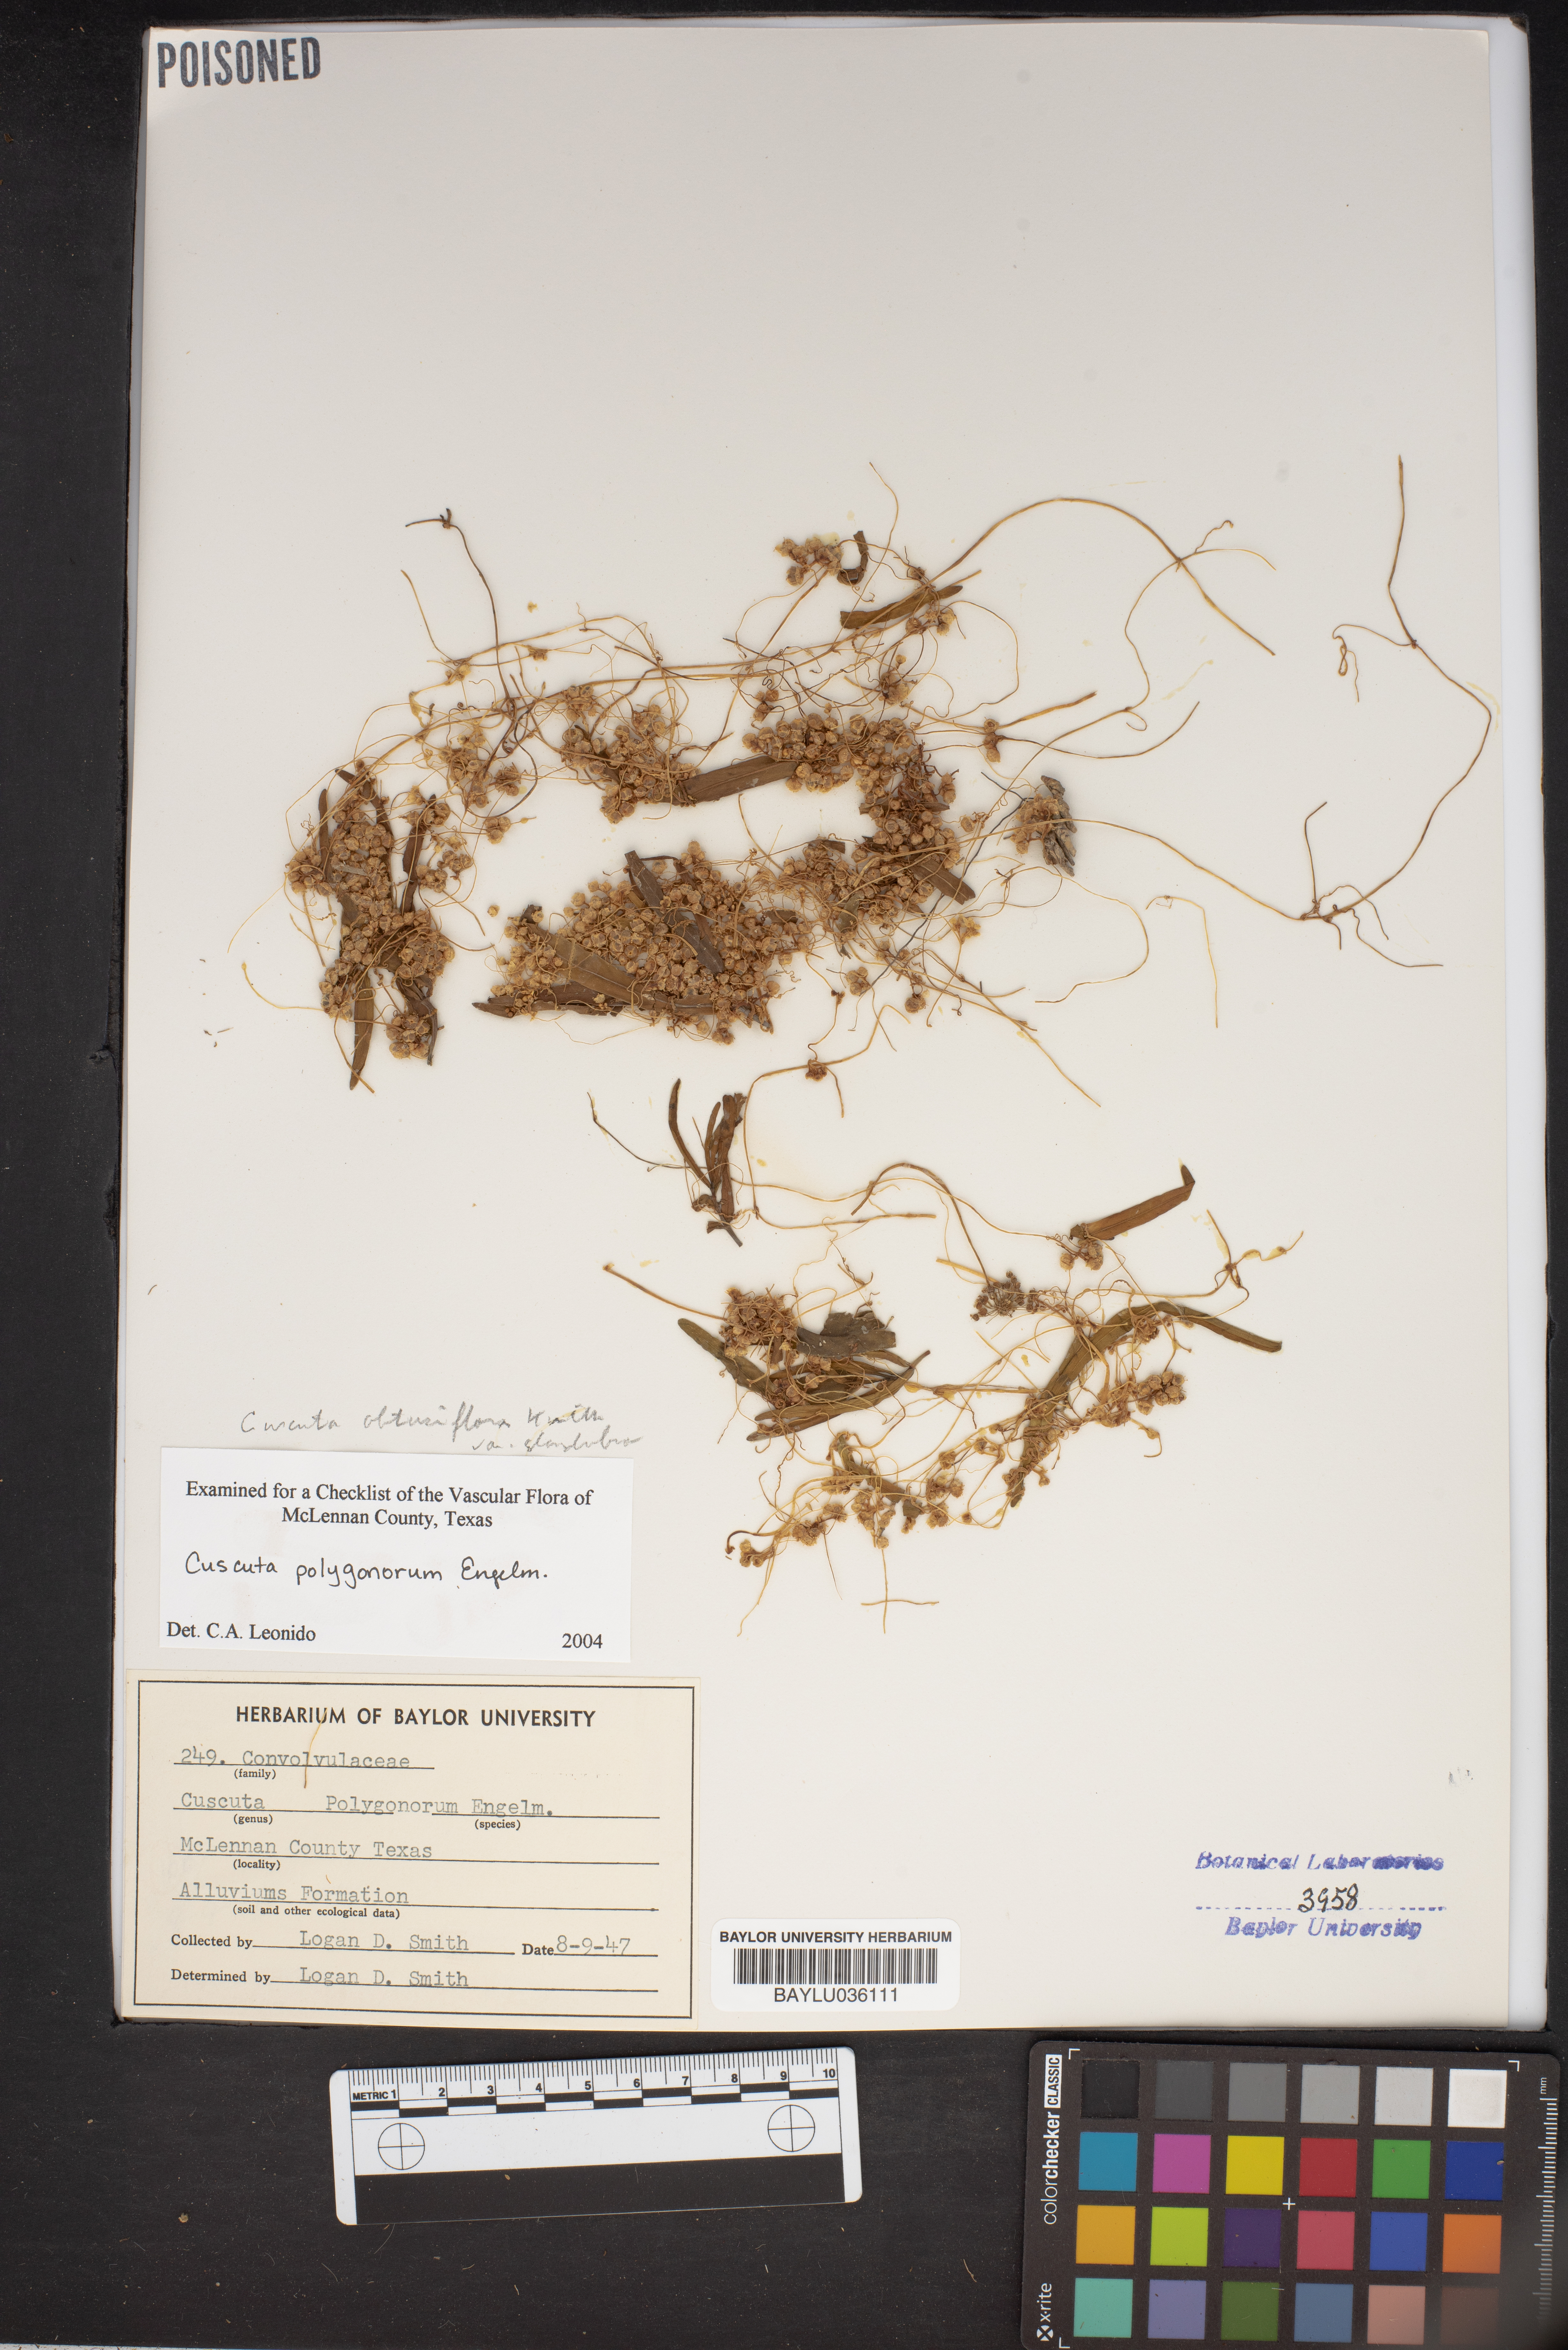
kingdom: Plantae
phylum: Tracheophyta
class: Magnoliopsida
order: Solanales
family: Convolvulaceae
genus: Cuscuta
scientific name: Cuscuta polygonorum
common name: Polygonum dodder
